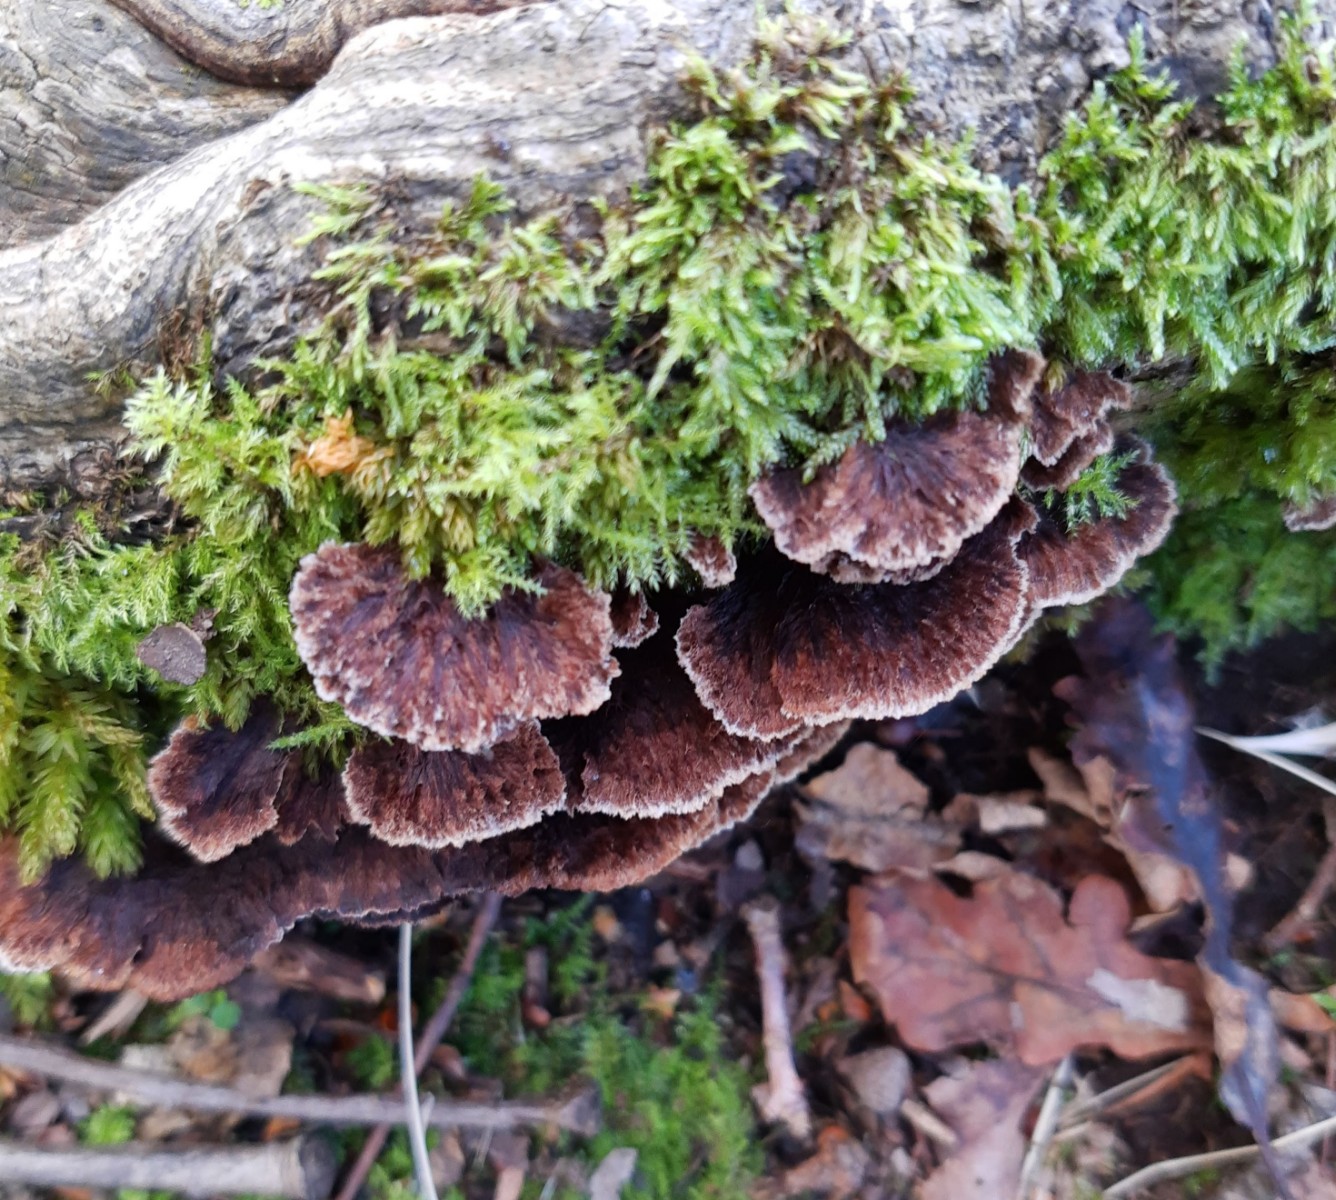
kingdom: Fungi
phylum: Basidiomycota
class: Agaricomycetes
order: Thelephorales
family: Thelephoraceae
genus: Thelephora
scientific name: Thelephora terrestris
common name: fliget frynsesvamp
